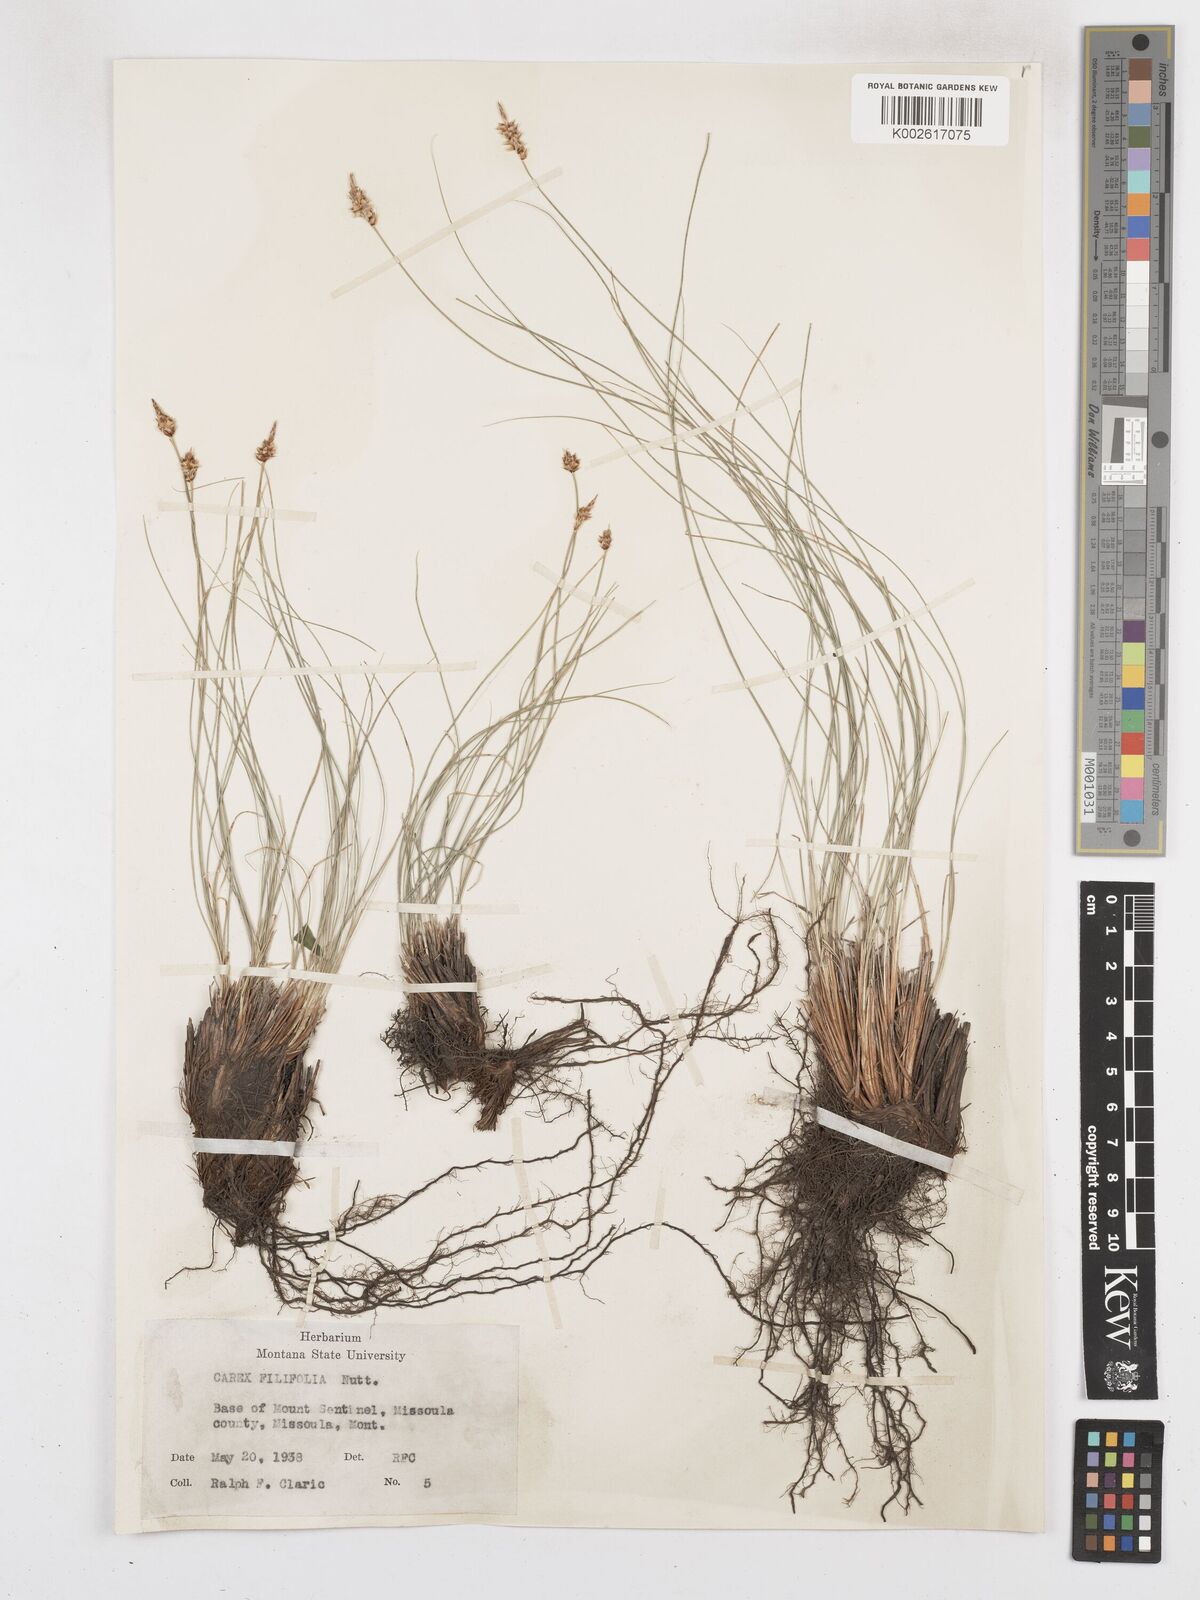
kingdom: Plantae
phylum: Tracheophyta
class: Liliopsida
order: Poales
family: Cyperaceae
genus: Carex
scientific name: Carex filifolia
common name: Threadleaf sedge
